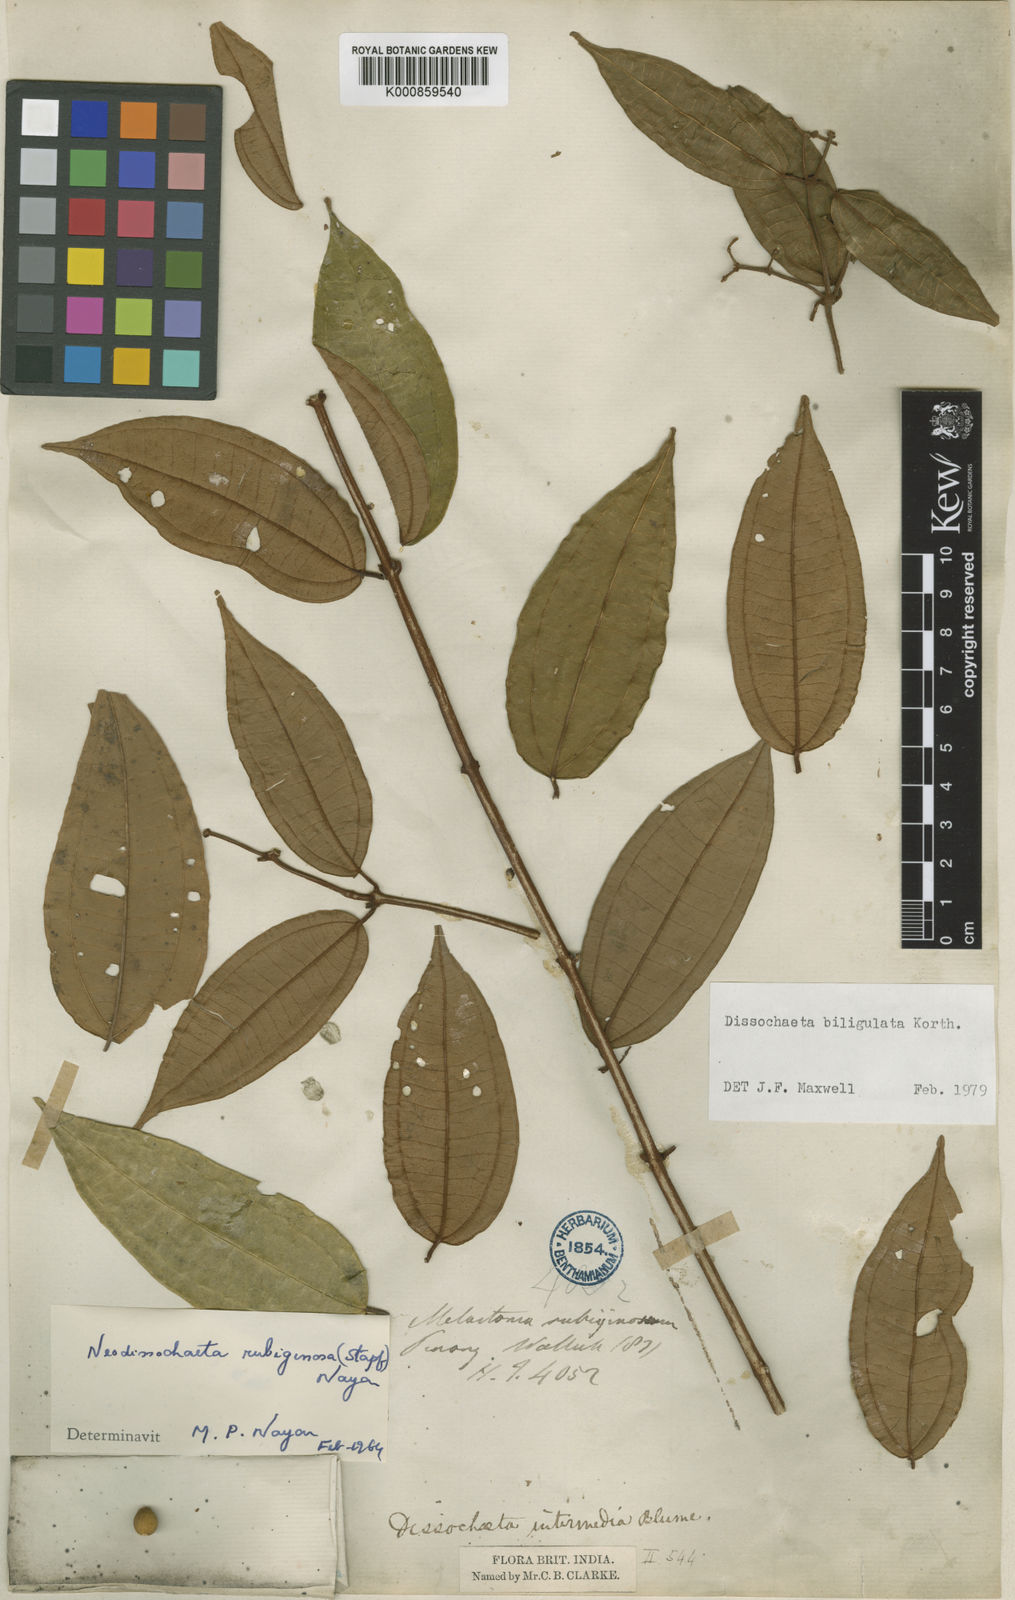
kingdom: Plantae
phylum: Tracheophyta
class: Magnoliopsida
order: Myrtales
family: Melastomataceae
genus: Dissochaeta
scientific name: Dissochaeta biligulata
